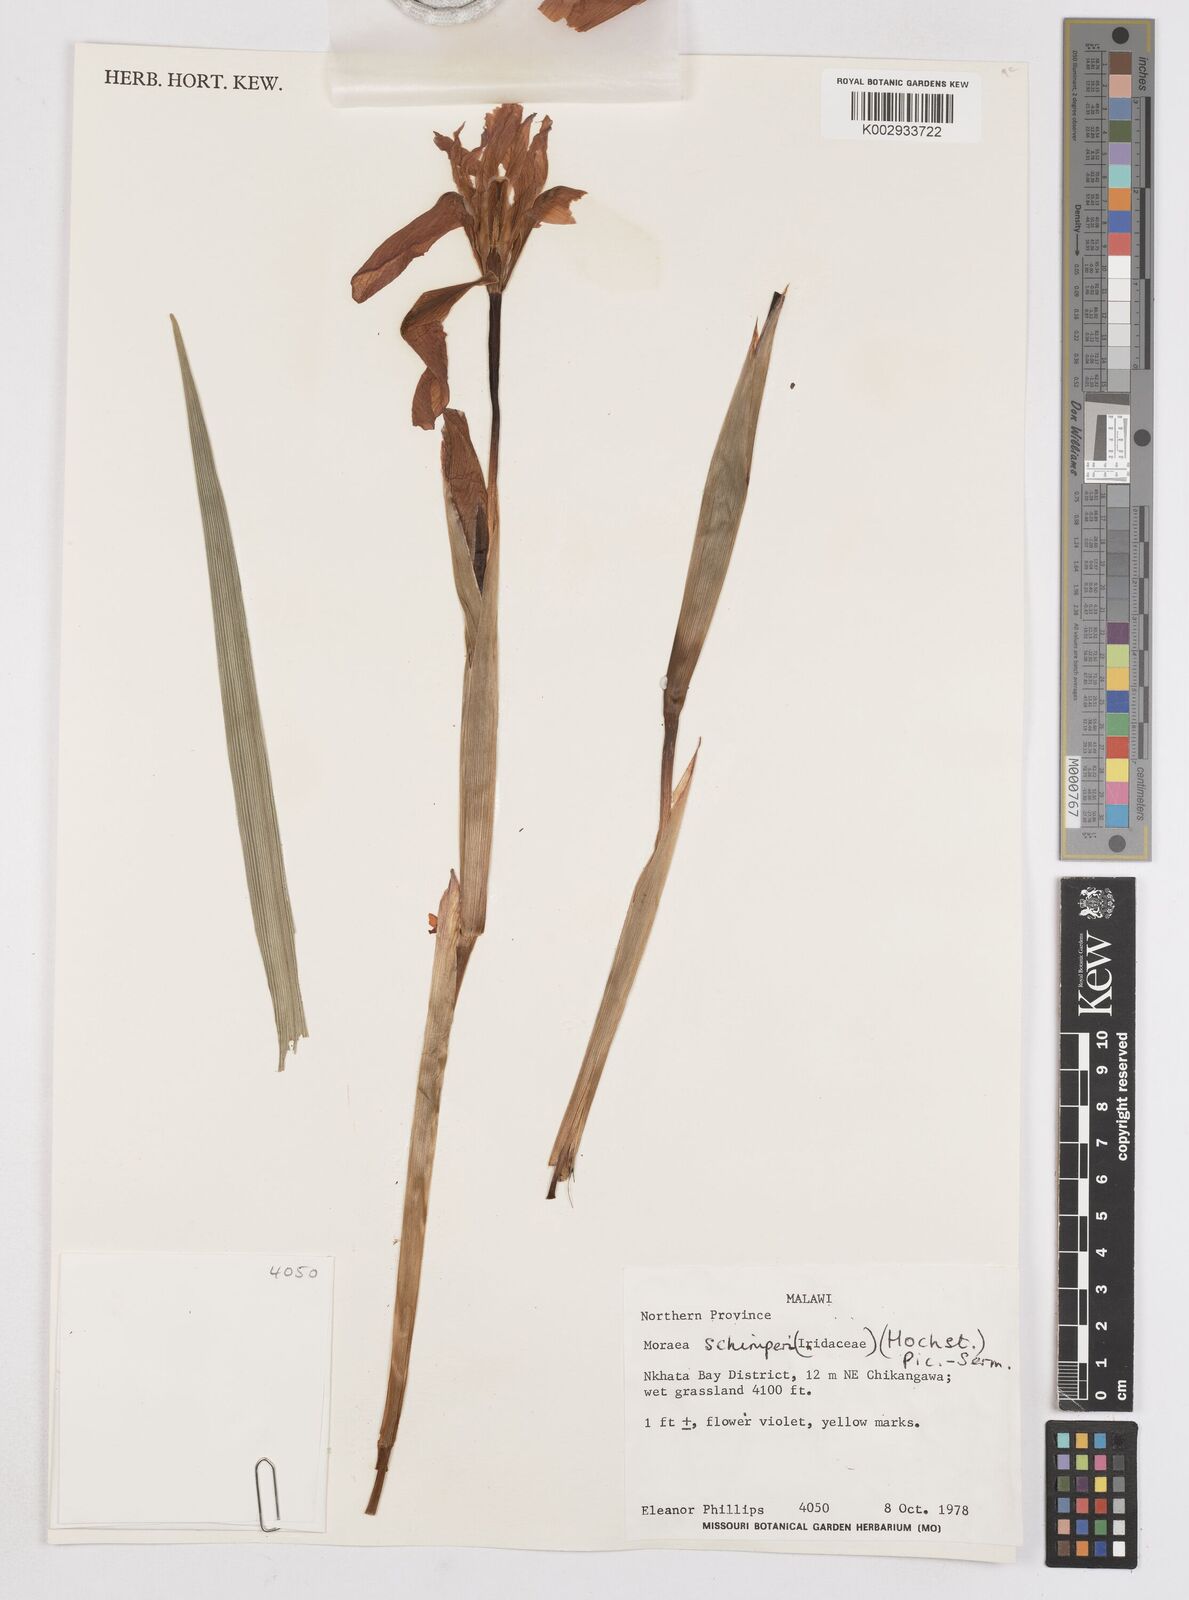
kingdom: Plantae
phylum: Tracheophyta
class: Liliopsida
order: Asparagales
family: Iridaceae
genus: Moraea
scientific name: Moraea schimperi
